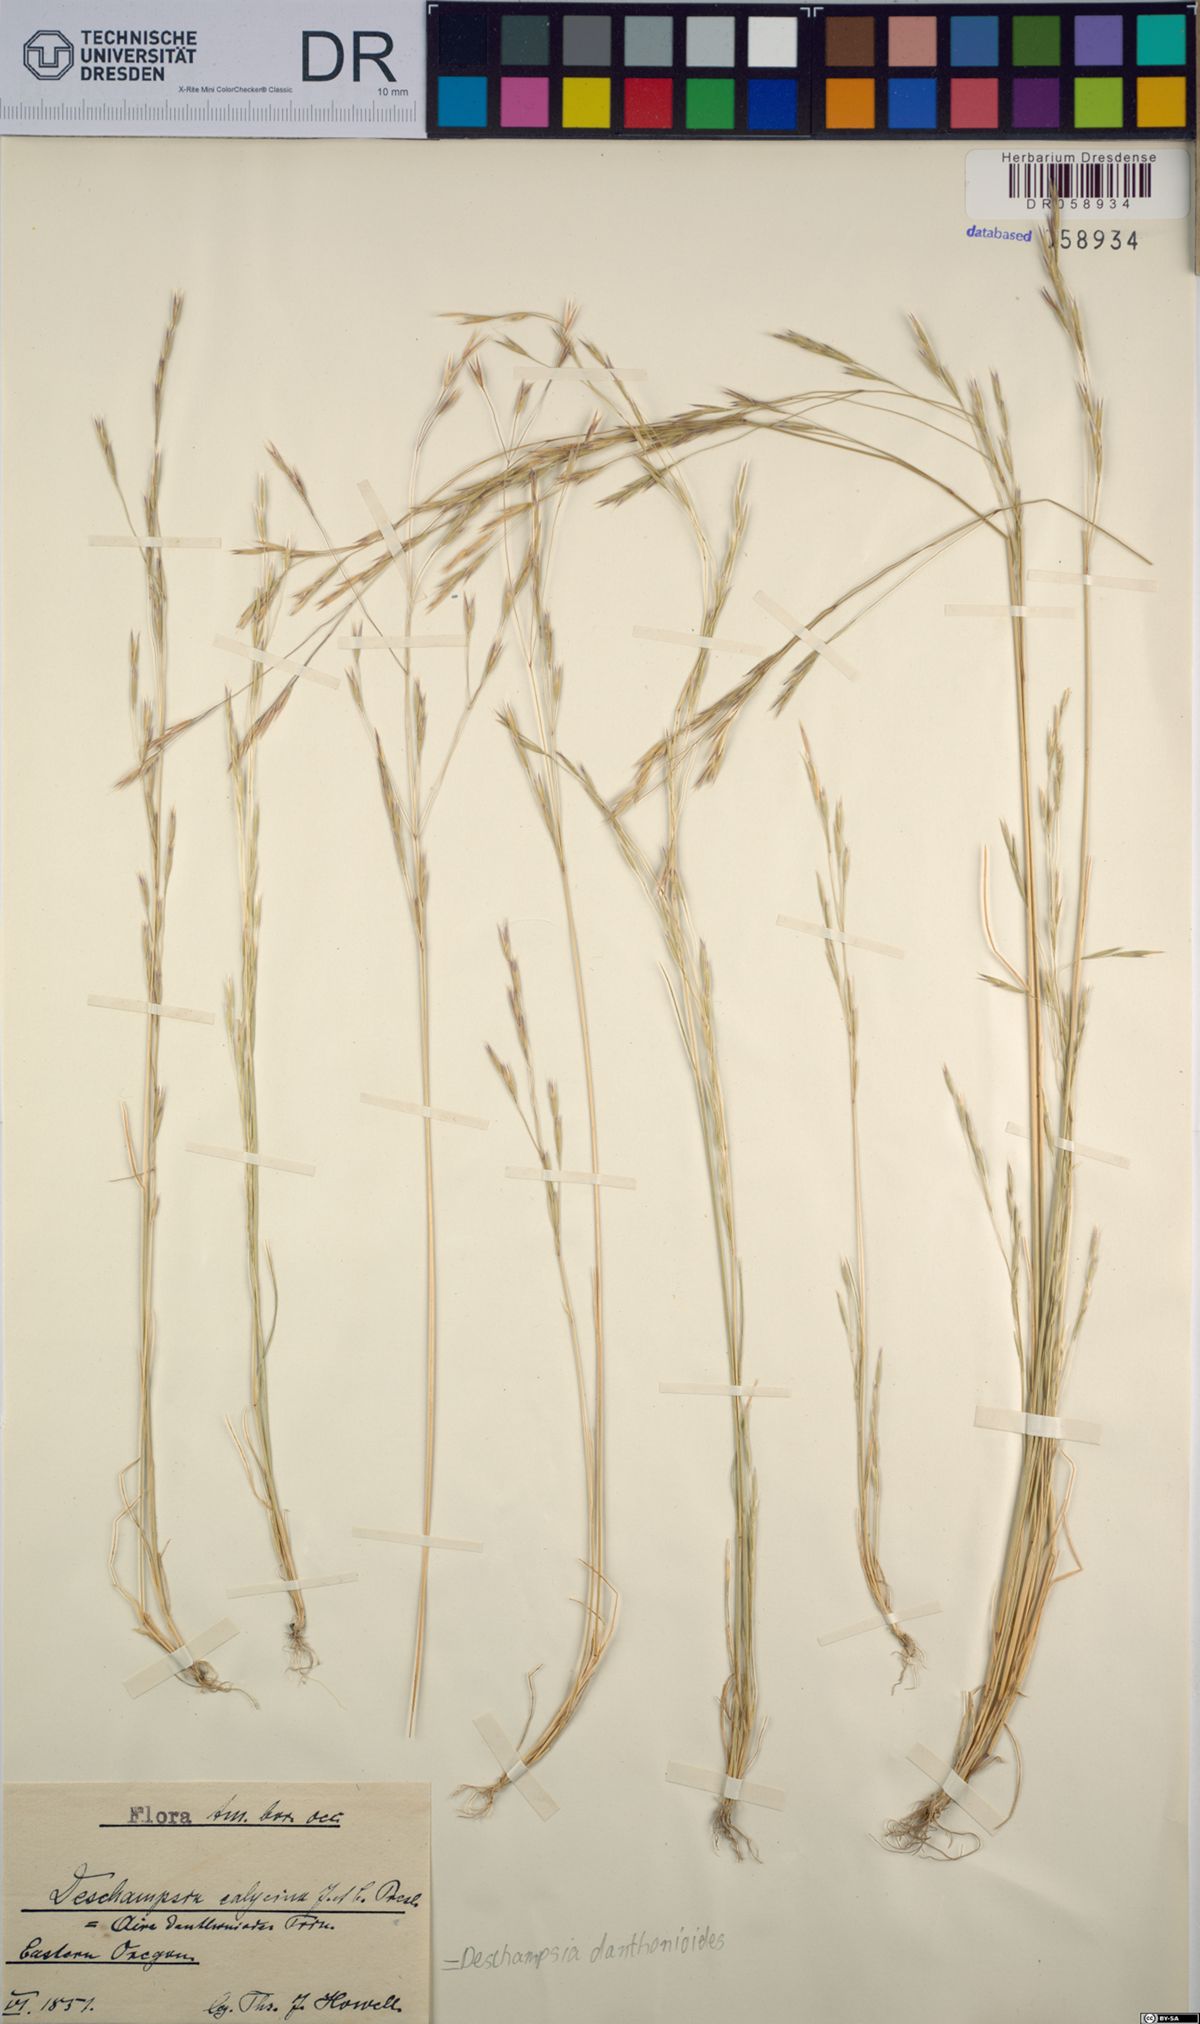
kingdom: Plantae
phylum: Tracheophyta
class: Liliopsida
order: Poales
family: Poaceae
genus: Deschampsia
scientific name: Deschampsia danthonioides
